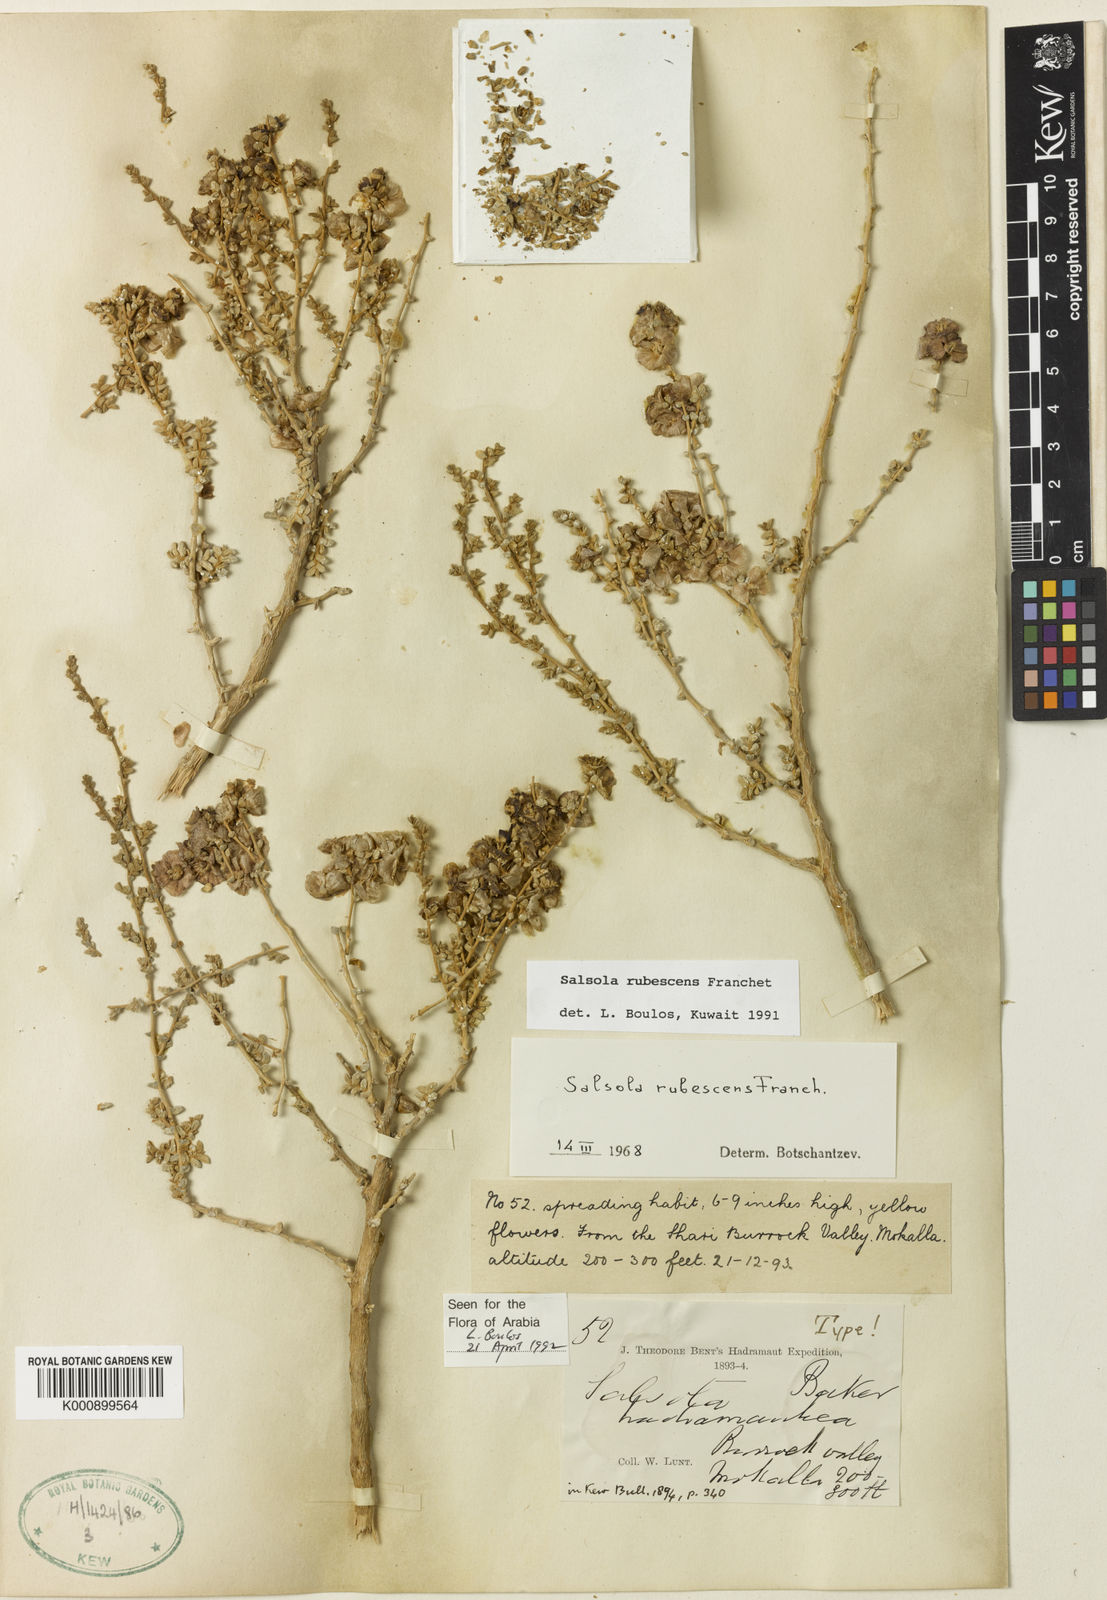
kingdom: Plantae
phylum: Tracheophyta
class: Magnoliopsida
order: Caryophyllales
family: Amaranthaceae
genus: Kaviria
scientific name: Kaviria rubescens
